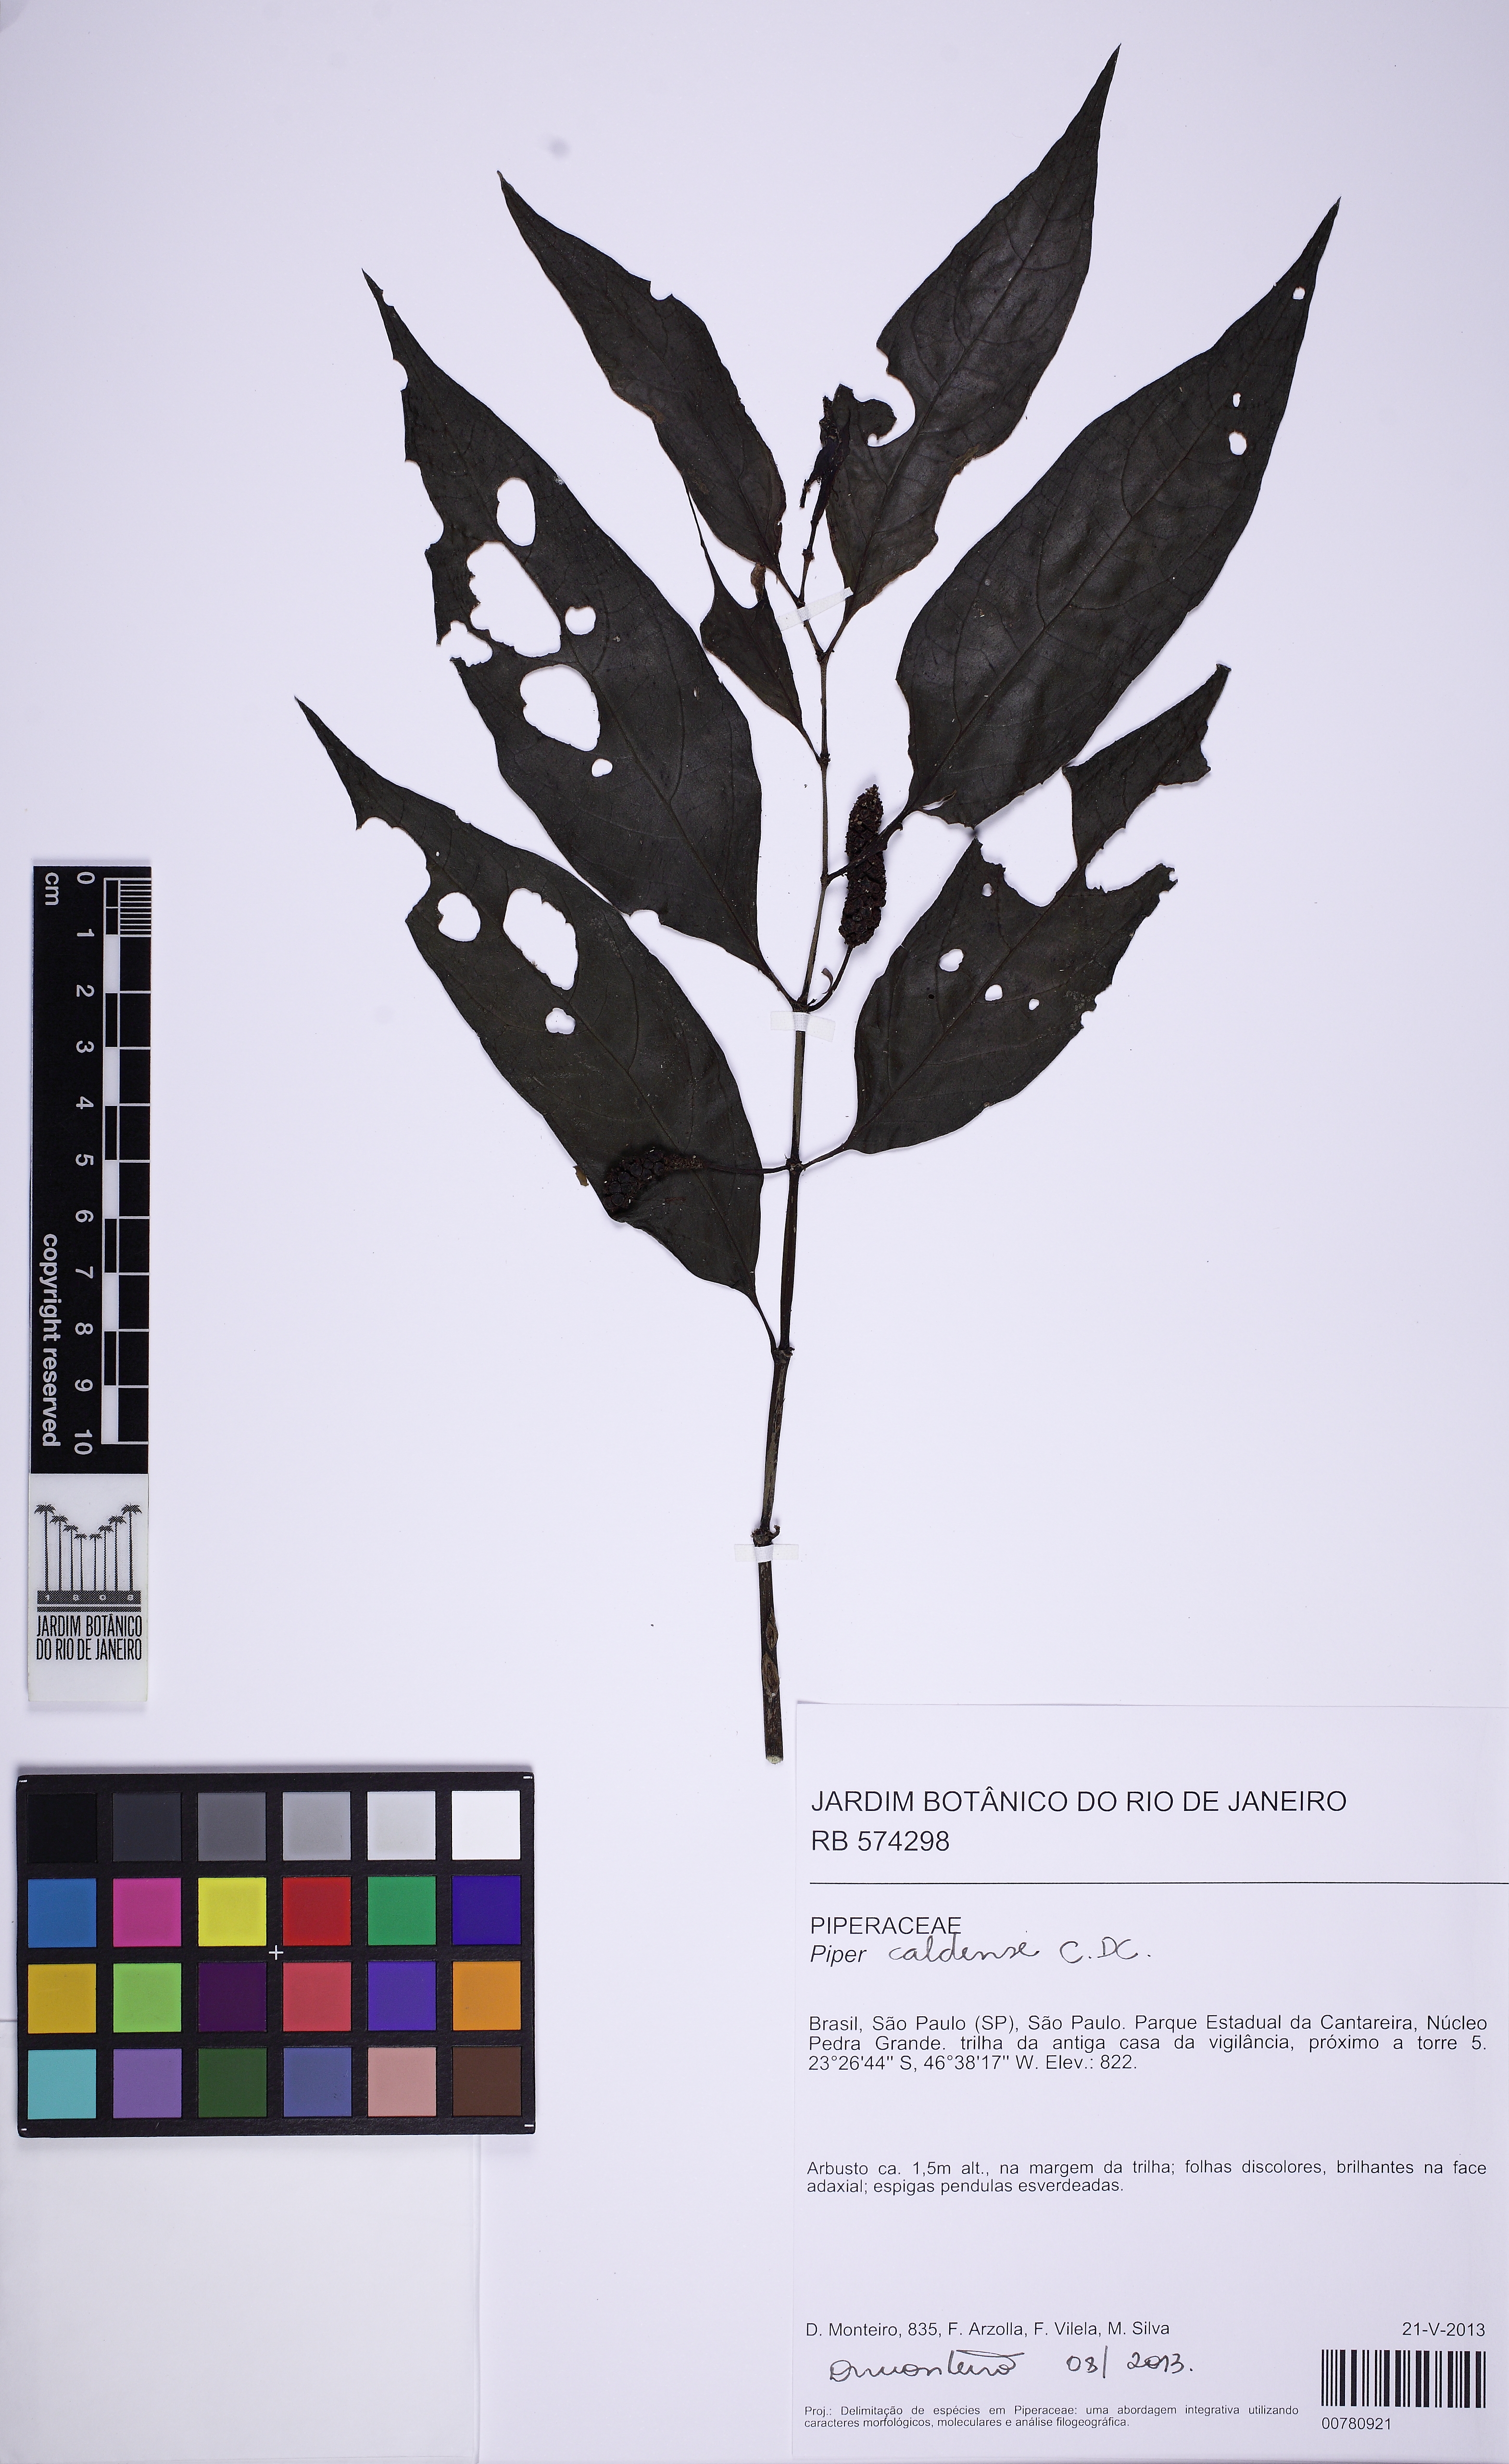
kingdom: Plantae
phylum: Tracheophyta
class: Magnoliopsida
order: Piperales
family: Piperaceae
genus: Piper
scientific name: Piper caldense
